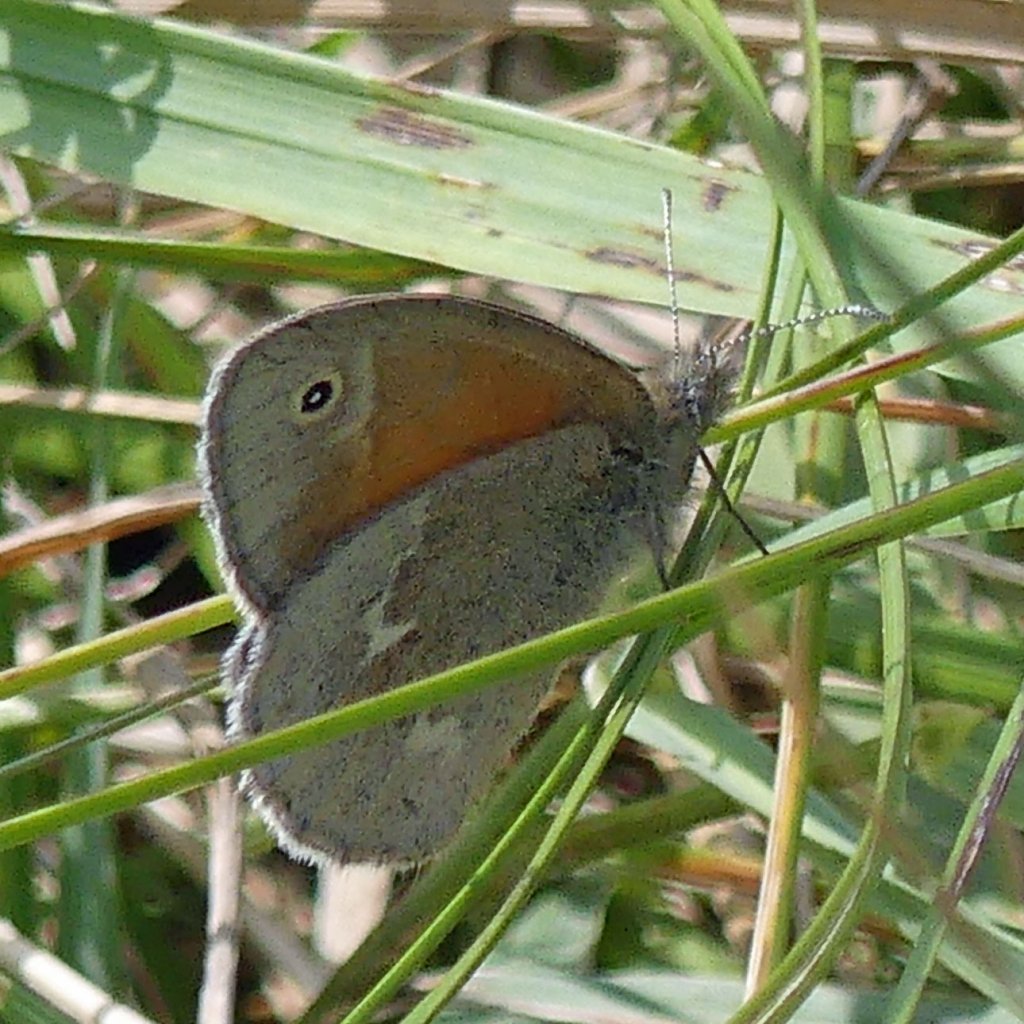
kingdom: Animalia
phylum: Arthropoda
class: Insecta
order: Lepidoptera
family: Nymphalidae
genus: Coenonympha
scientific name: Coenonympha tullia
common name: Large Heath
